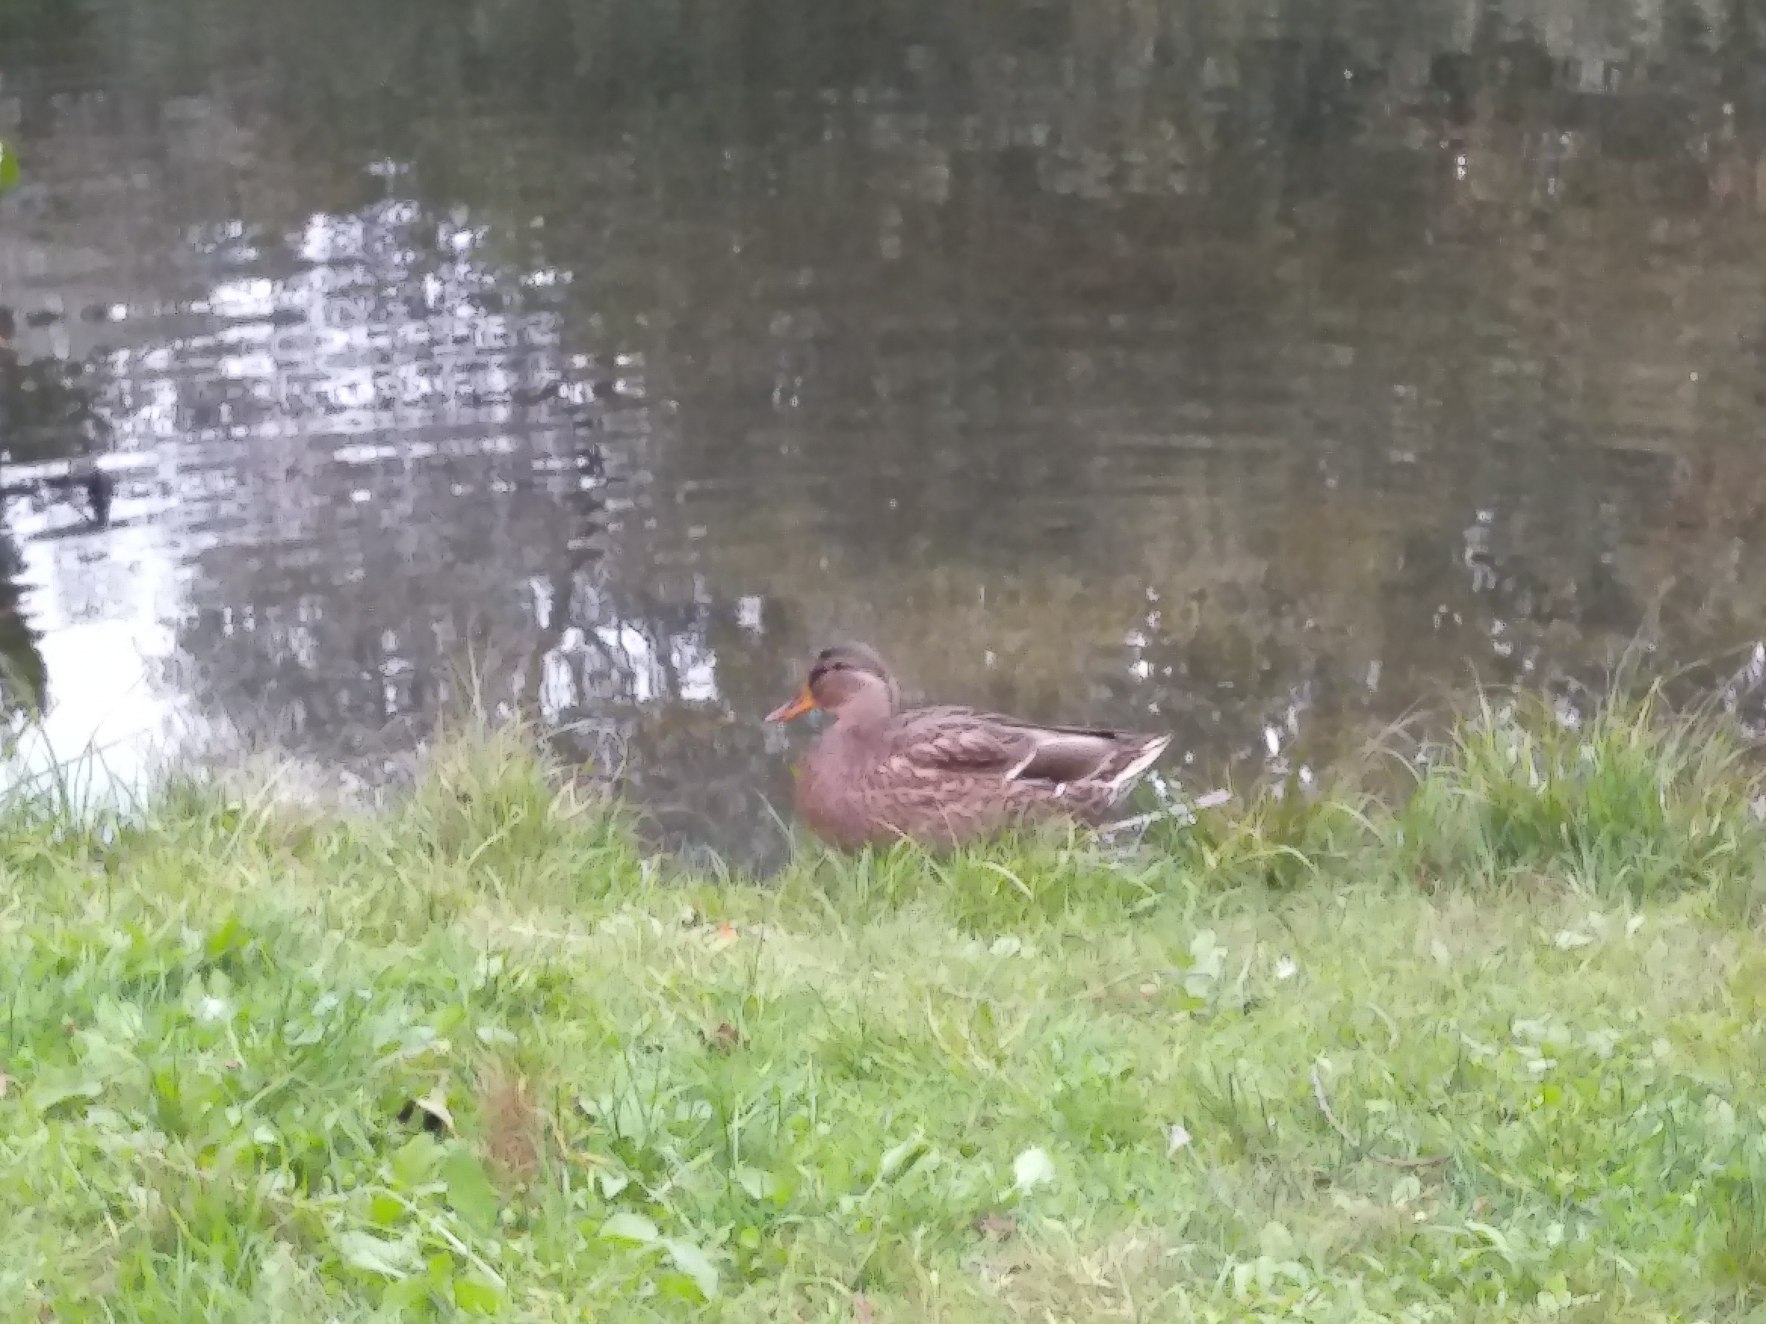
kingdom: Animalia
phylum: Chordata
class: Aves
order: Anseriformes
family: Anatidae
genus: Anas
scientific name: Anas platyrhynchos
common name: Gråand
